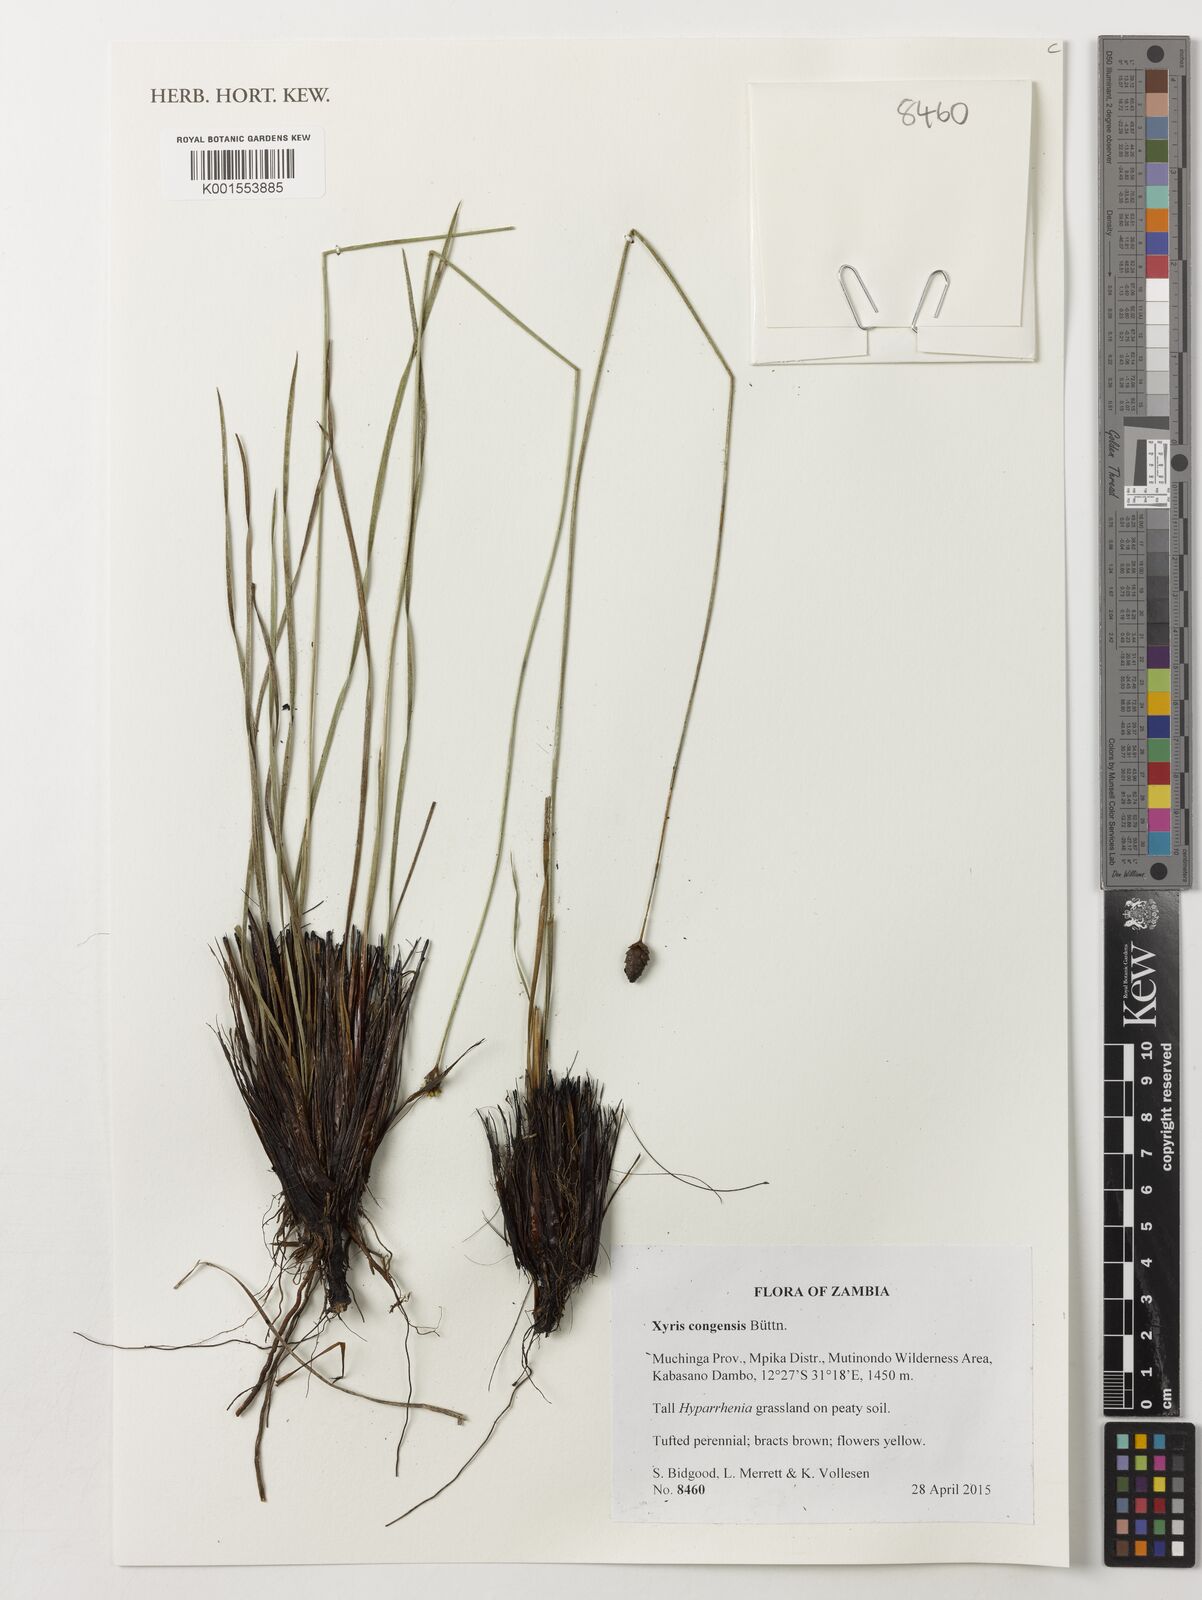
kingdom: Plantae
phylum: Tracheophyta
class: Liliopsida
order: Poales
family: Xyridaceae
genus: Xyris
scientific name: Xyris congensis
